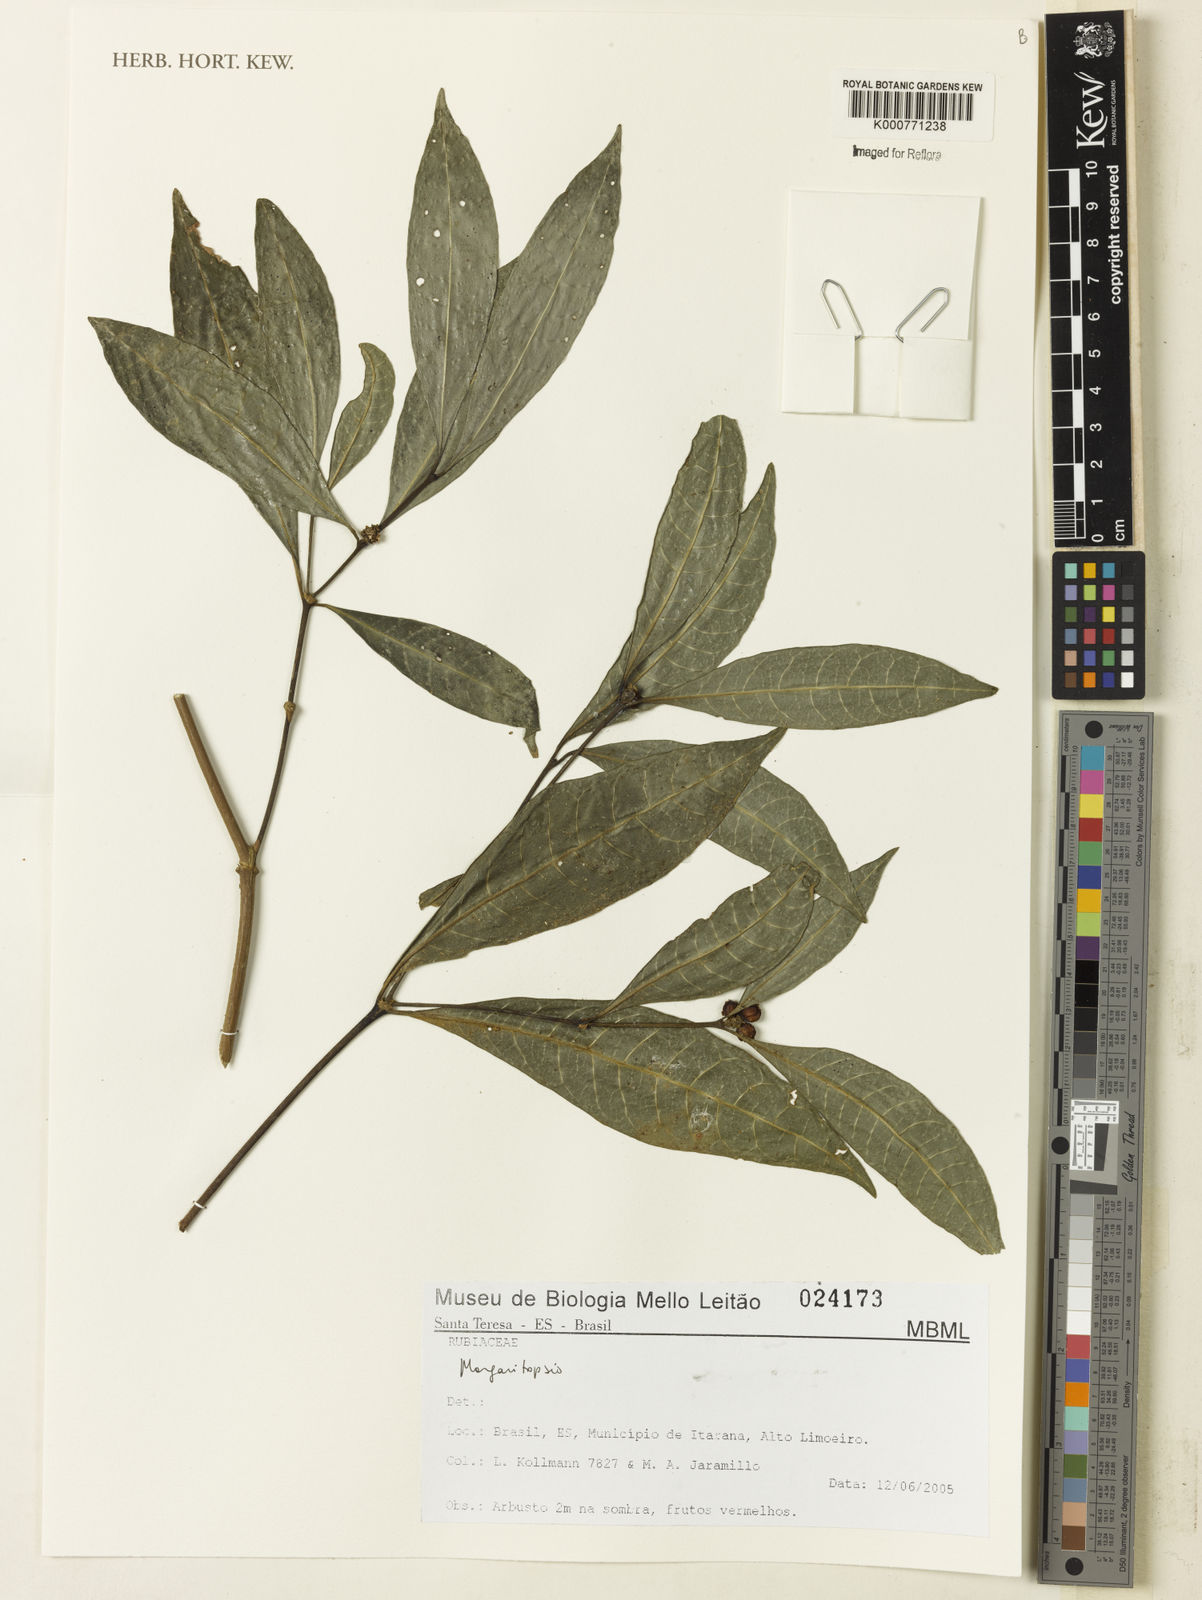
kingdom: Plantae
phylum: Tracheophyta
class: Magnoliopsida
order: Gentianales
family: Rubiaceae
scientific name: Rubiaceae
